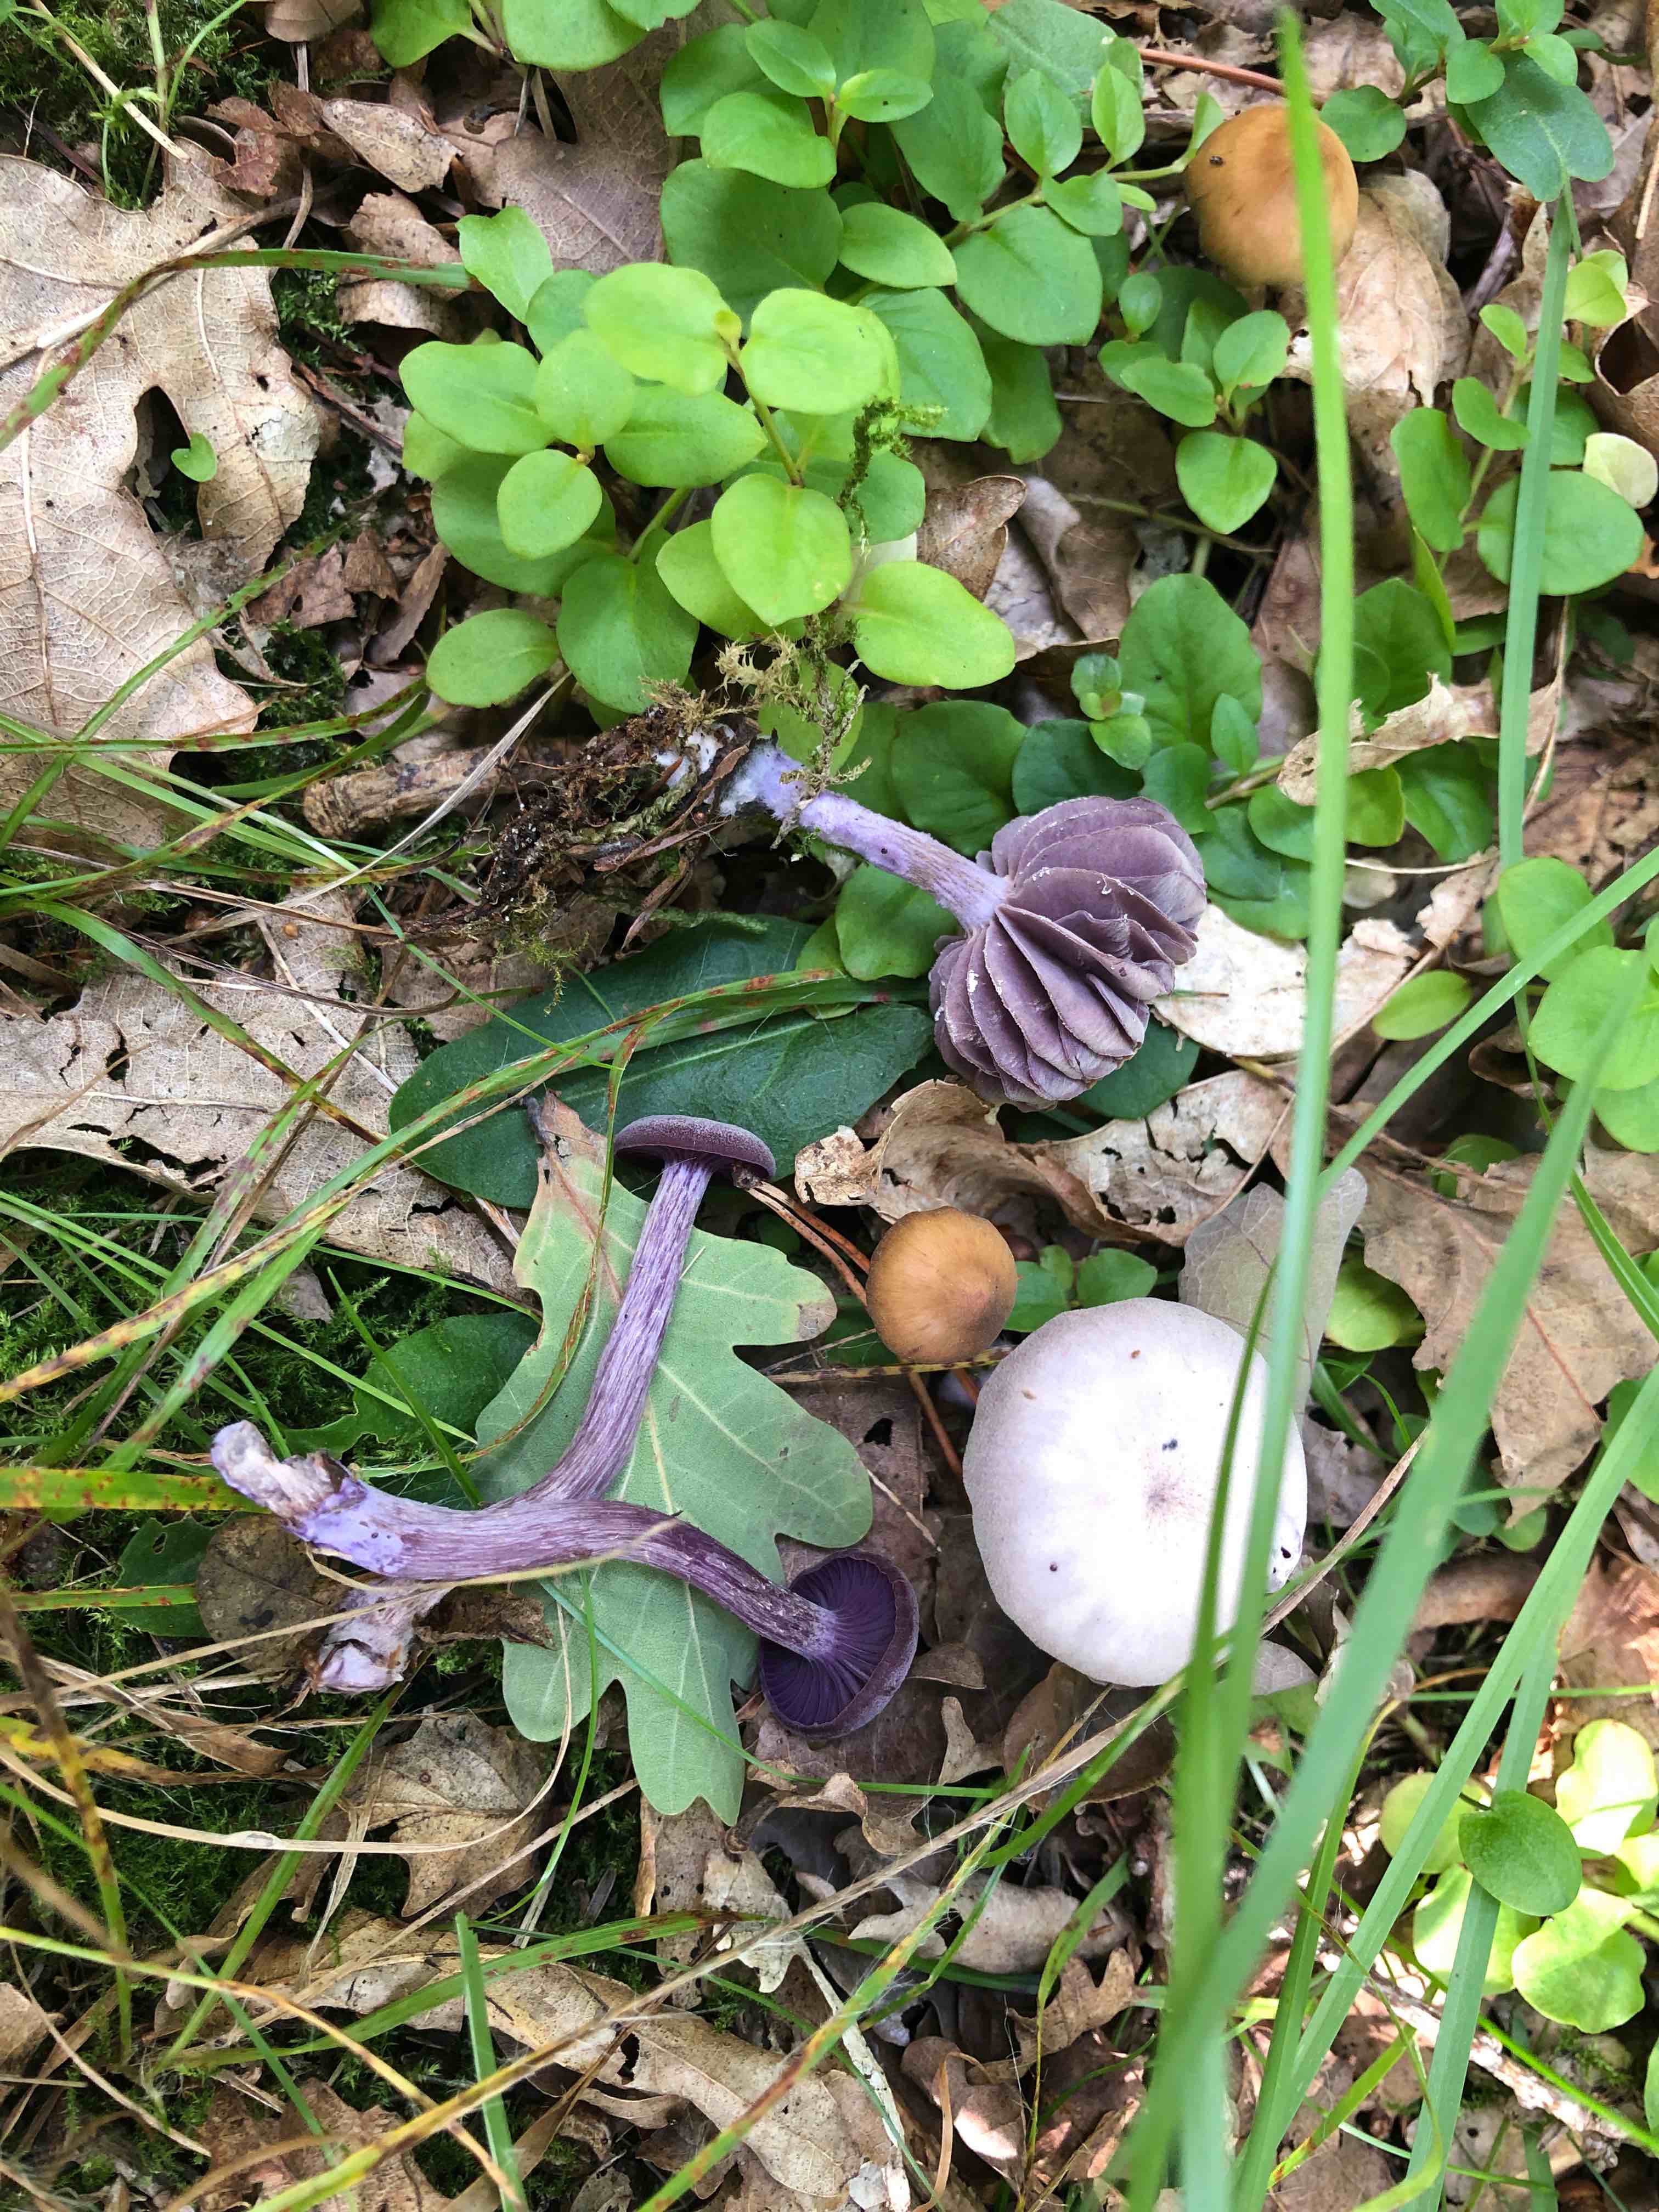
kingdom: Fungi
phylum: Basidiomycota
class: Agaricomycetes
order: Agaricales
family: Hydnangiaceae
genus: Laccaria
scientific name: Laccaria amethystina
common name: violet ametysthat
